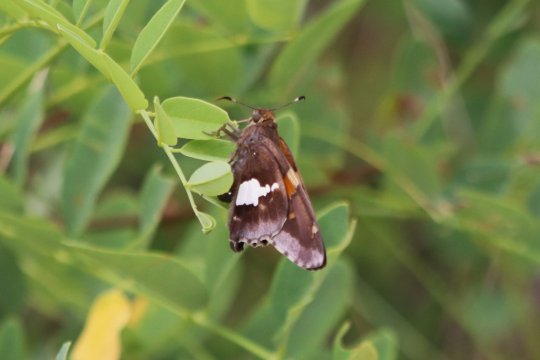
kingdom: Animalia
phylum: Arthropoda
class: Insecta
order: Lepidoptera
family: Hesperiidae
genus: Epargyreus
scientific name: Epargyreus clarus
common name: Silver-spotted Skipper
